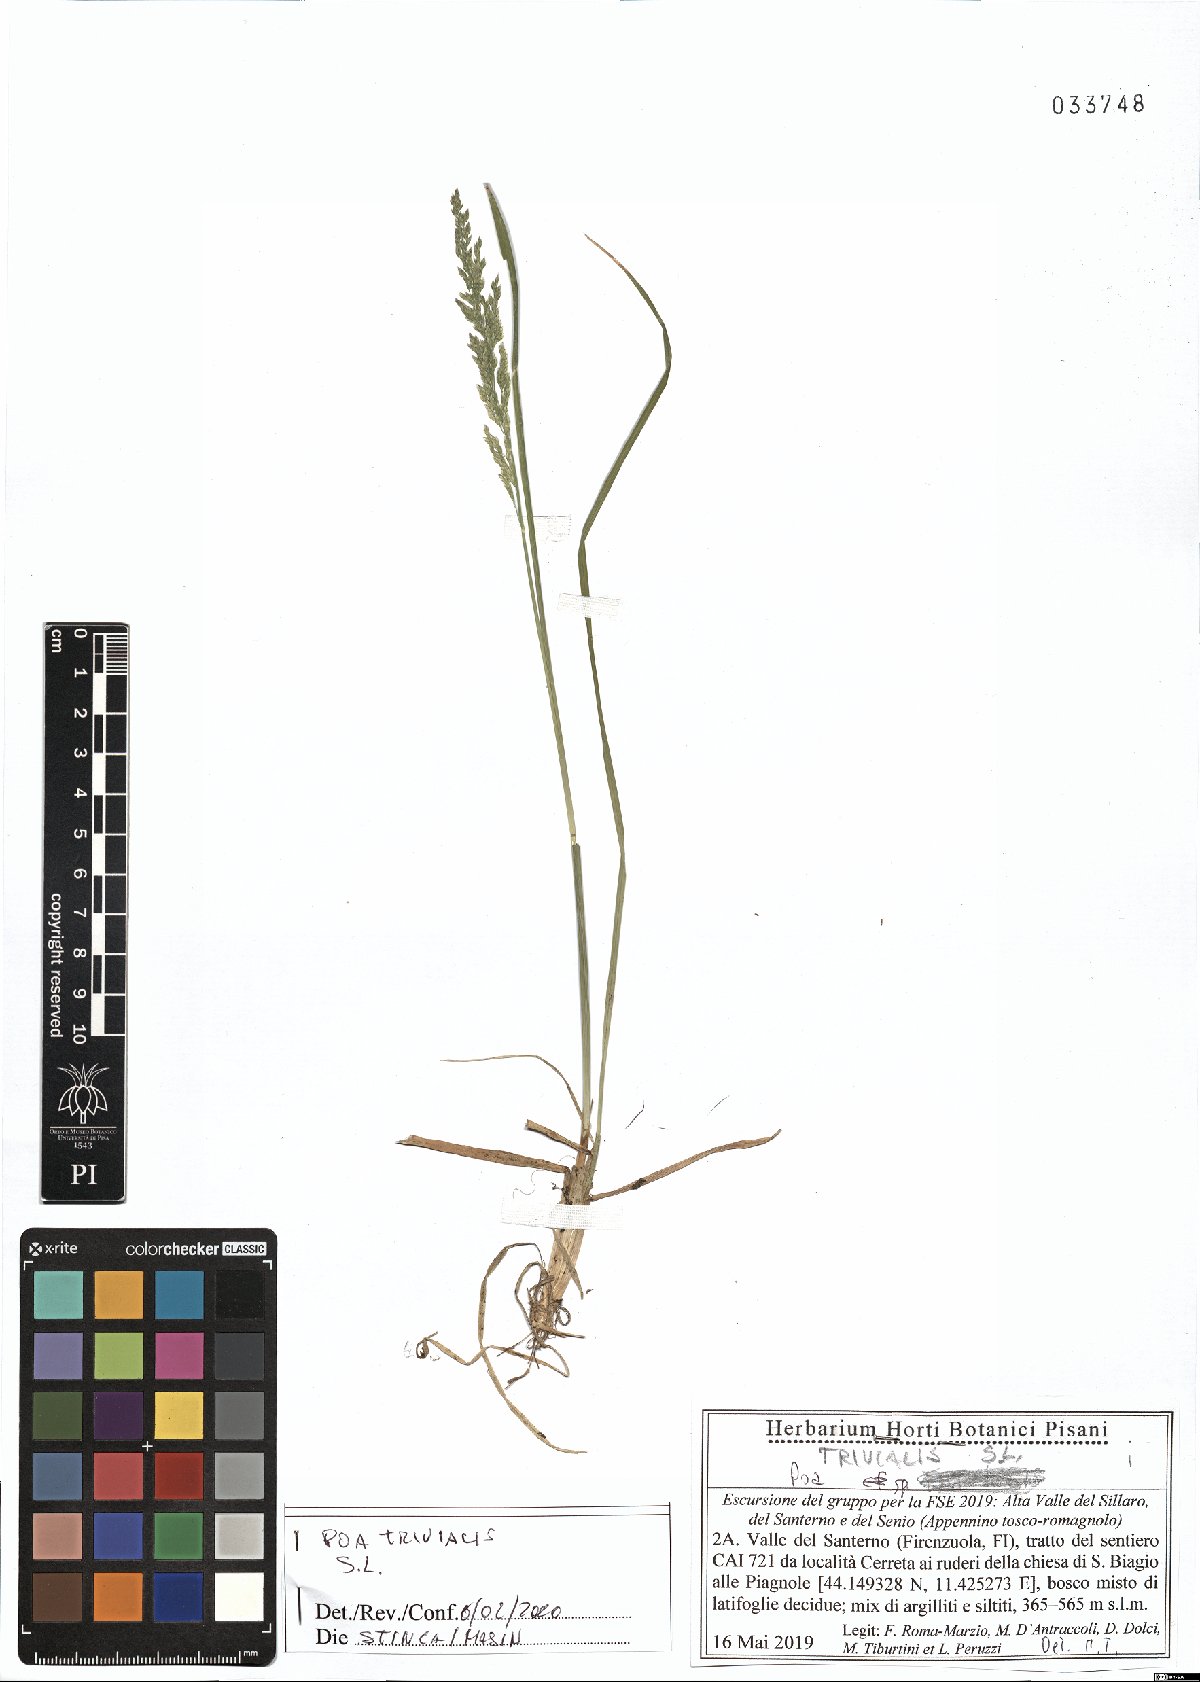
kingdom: Plantae
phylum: Tracheophyta
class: Liliopsida
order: Poales
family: Poaceae
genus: Poa
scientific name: Poa trivialis
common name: Rough bluegrass
